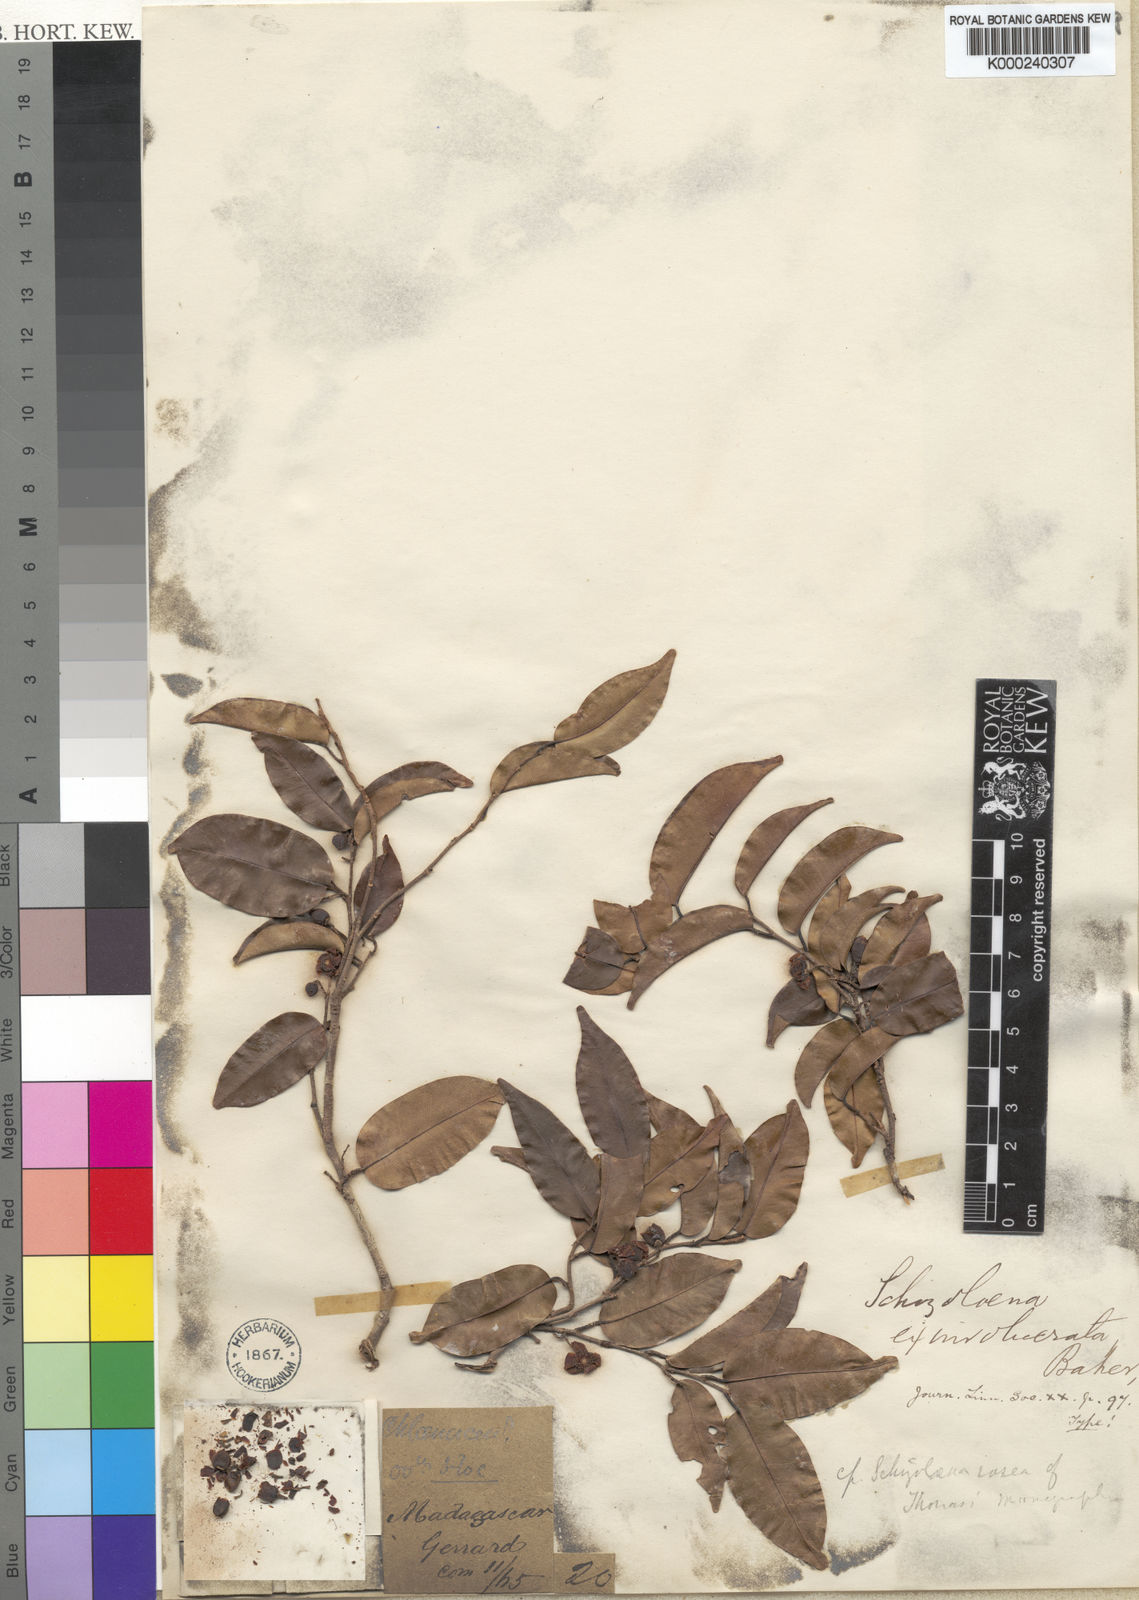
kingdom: Plantae
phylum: Tracheophyta
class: Magnoliopsida
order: Malvales
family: Sarcolaenaceae
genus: Schizolaena
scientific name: Schizolaena exinvolucrata
